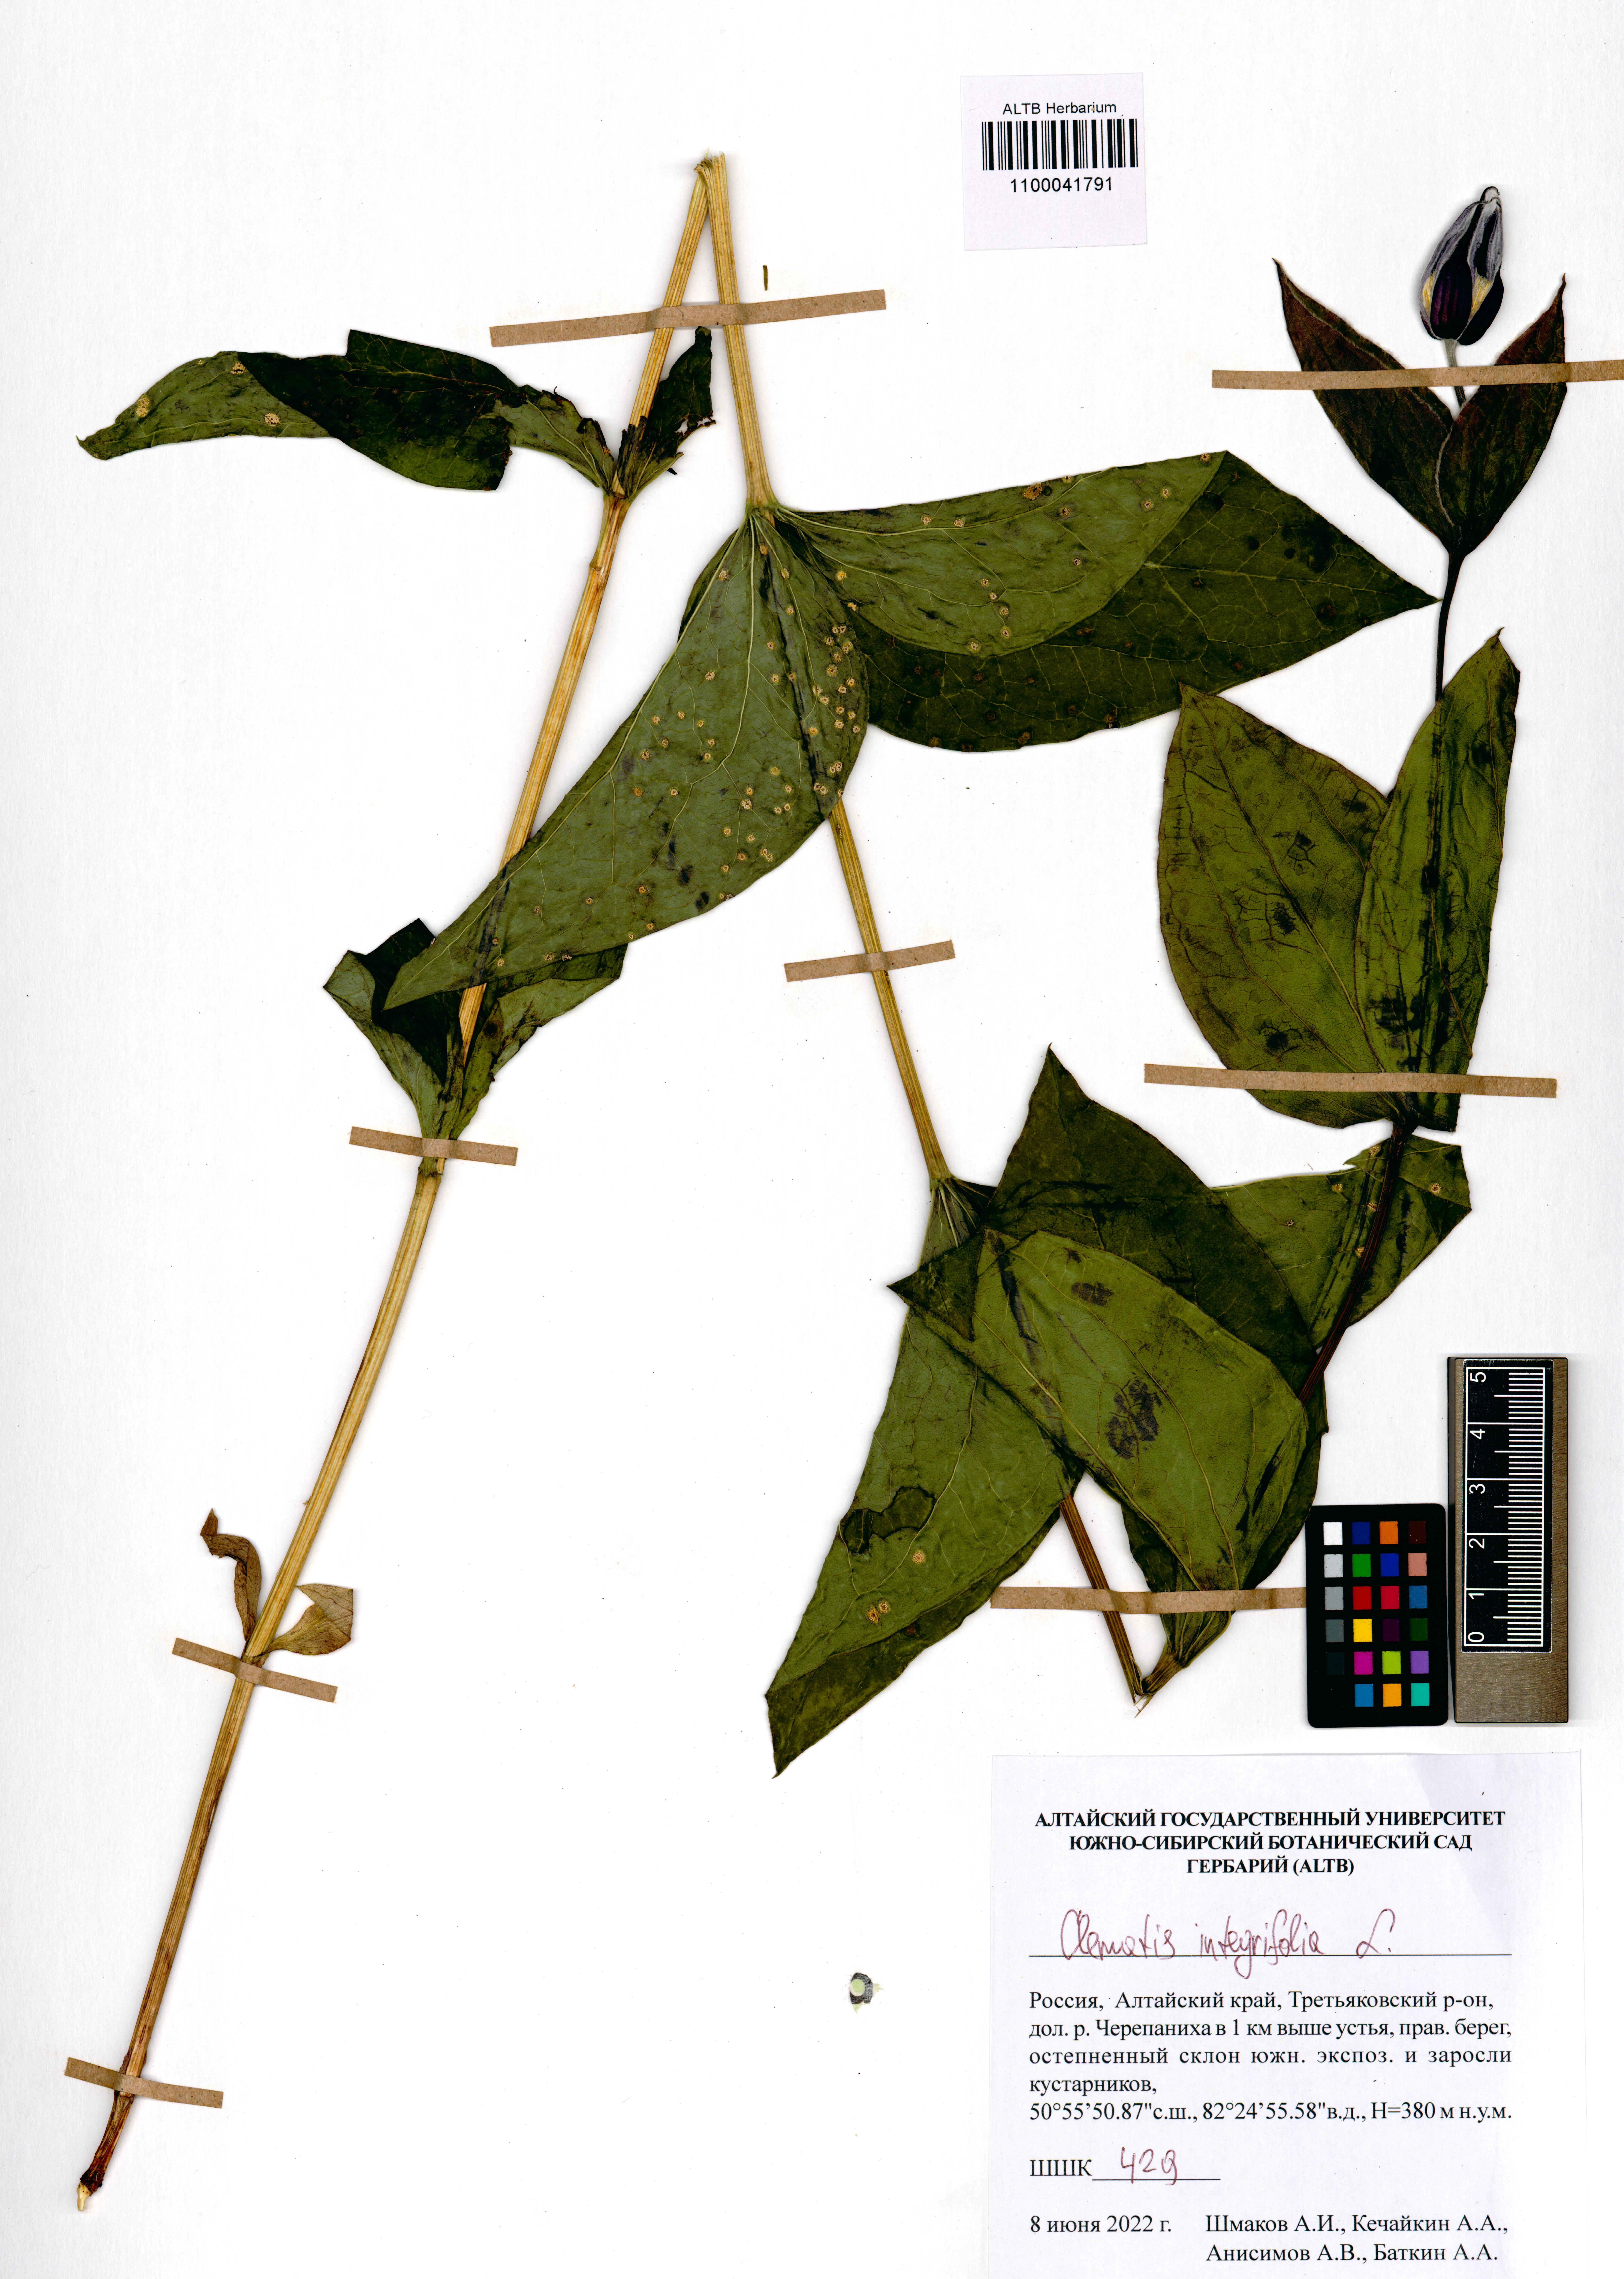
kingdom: Plantae
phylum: Tracheophyta
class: Magnoliopsida
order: Ranunculales
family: Ranunculaceae
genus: Clematis
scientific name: Clematis integrifolia
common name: Solitary clematis
